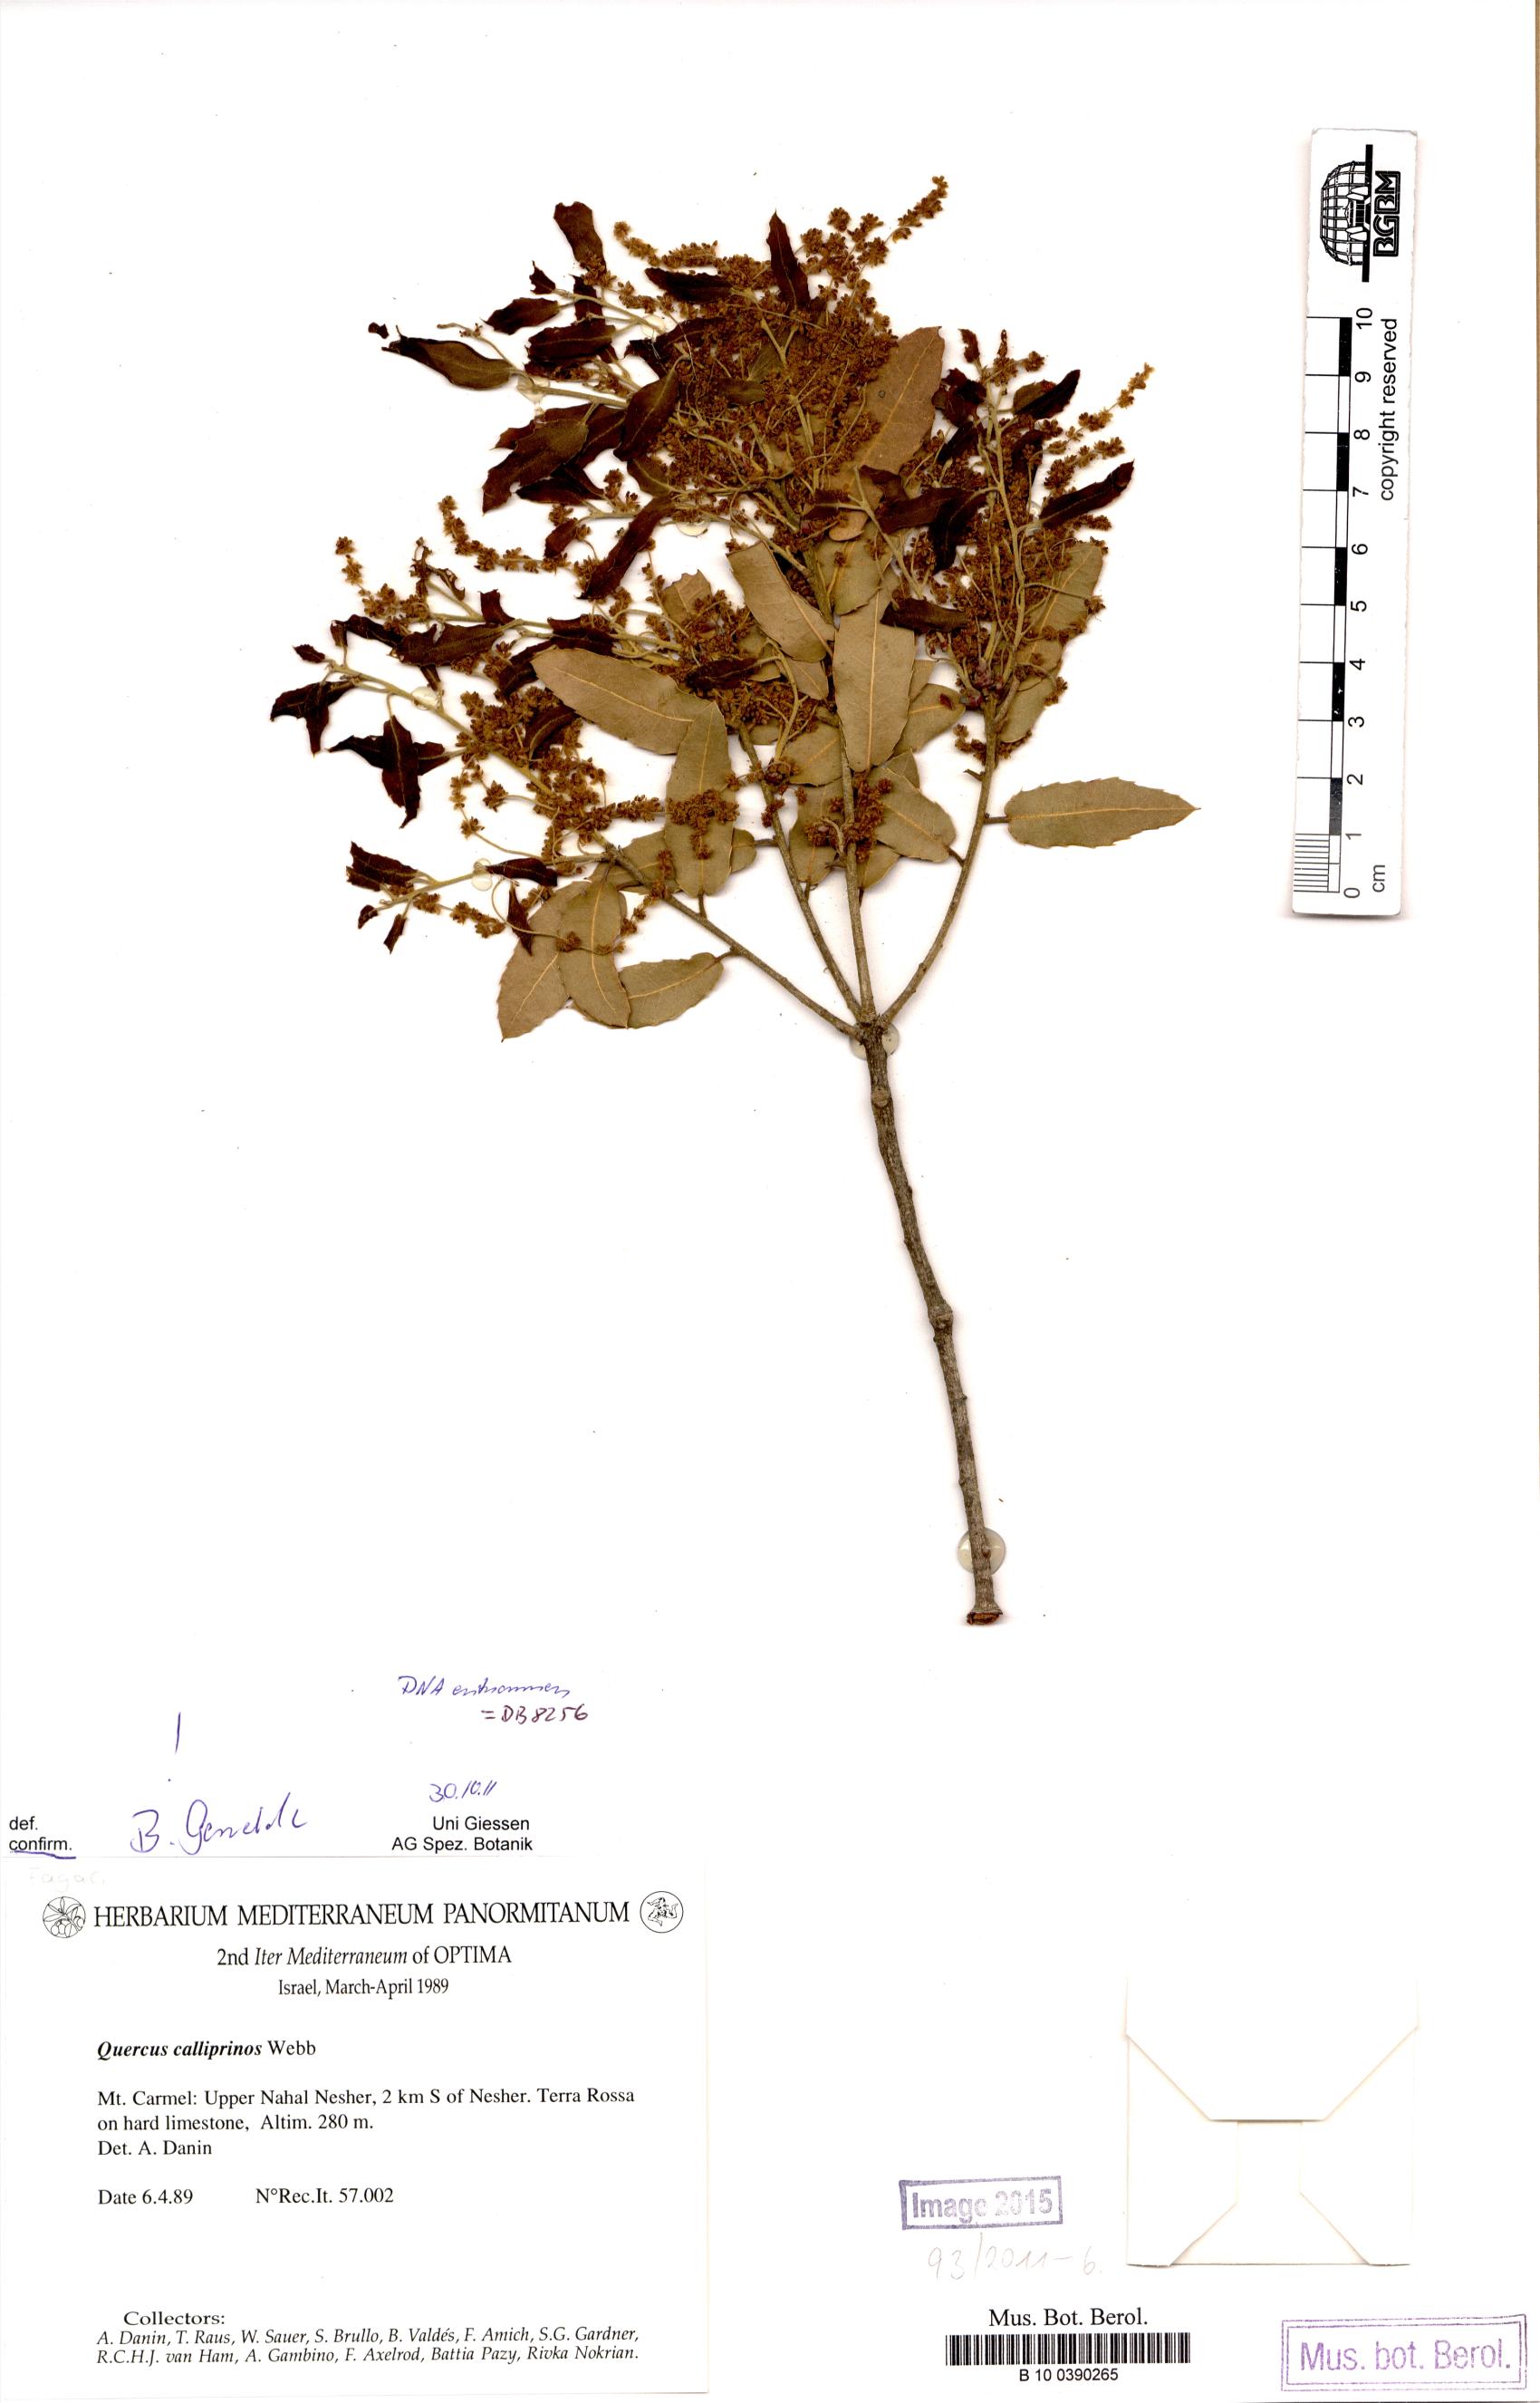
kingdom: Plantae
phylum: Tracheophyta
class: Magnoliopsida
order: Fagales
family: Fagaceae
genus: Quercus
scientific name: Quercus coccifera
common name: Kermes oak
